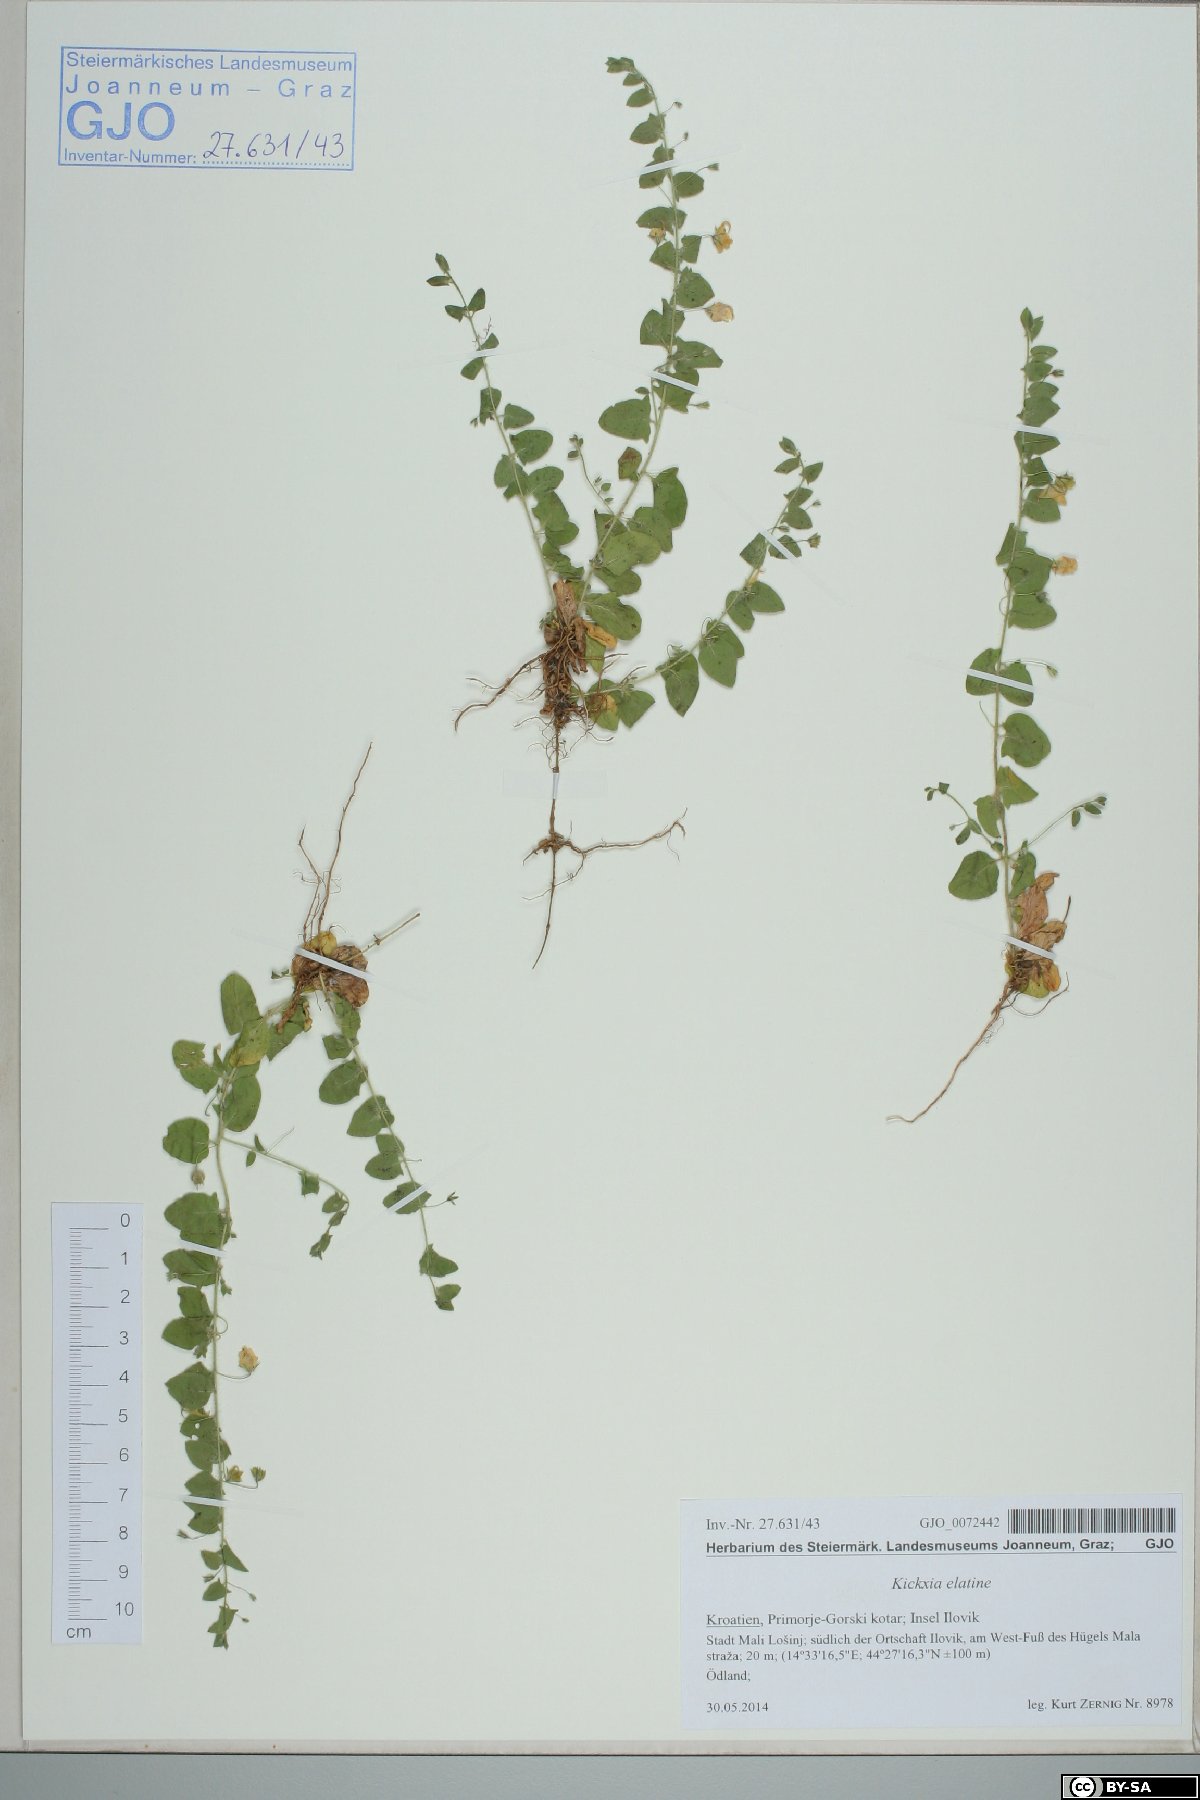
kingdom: Plantae
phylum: Tracheophyta
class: Magnoliopsida
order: Lamiales
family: Plantaginaceae
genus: Kickxia
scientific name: Kickxia elatine
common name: Sharp-leaved fluellen
